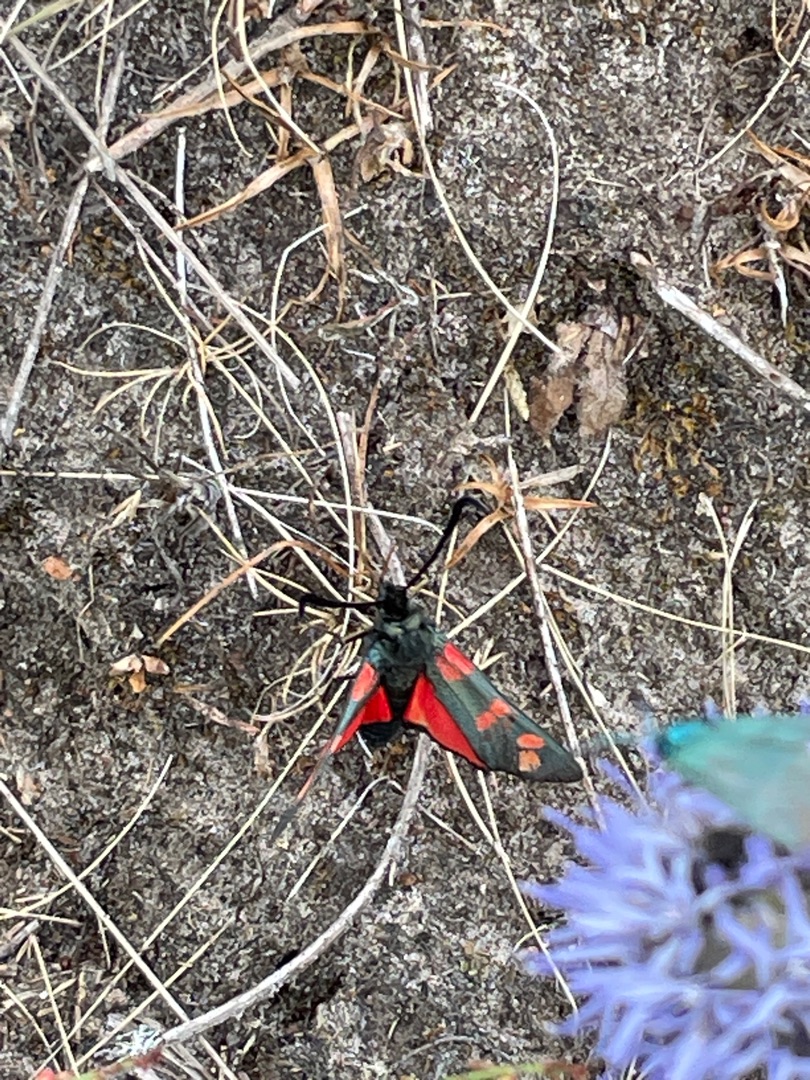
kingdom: Animalia
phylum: Arthropoda
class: Insecta
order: Lepidoptera
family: Zygaenidae
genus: Zygaena
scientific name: Zygaena filipendulae
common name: Seksplettet køllesværmer
